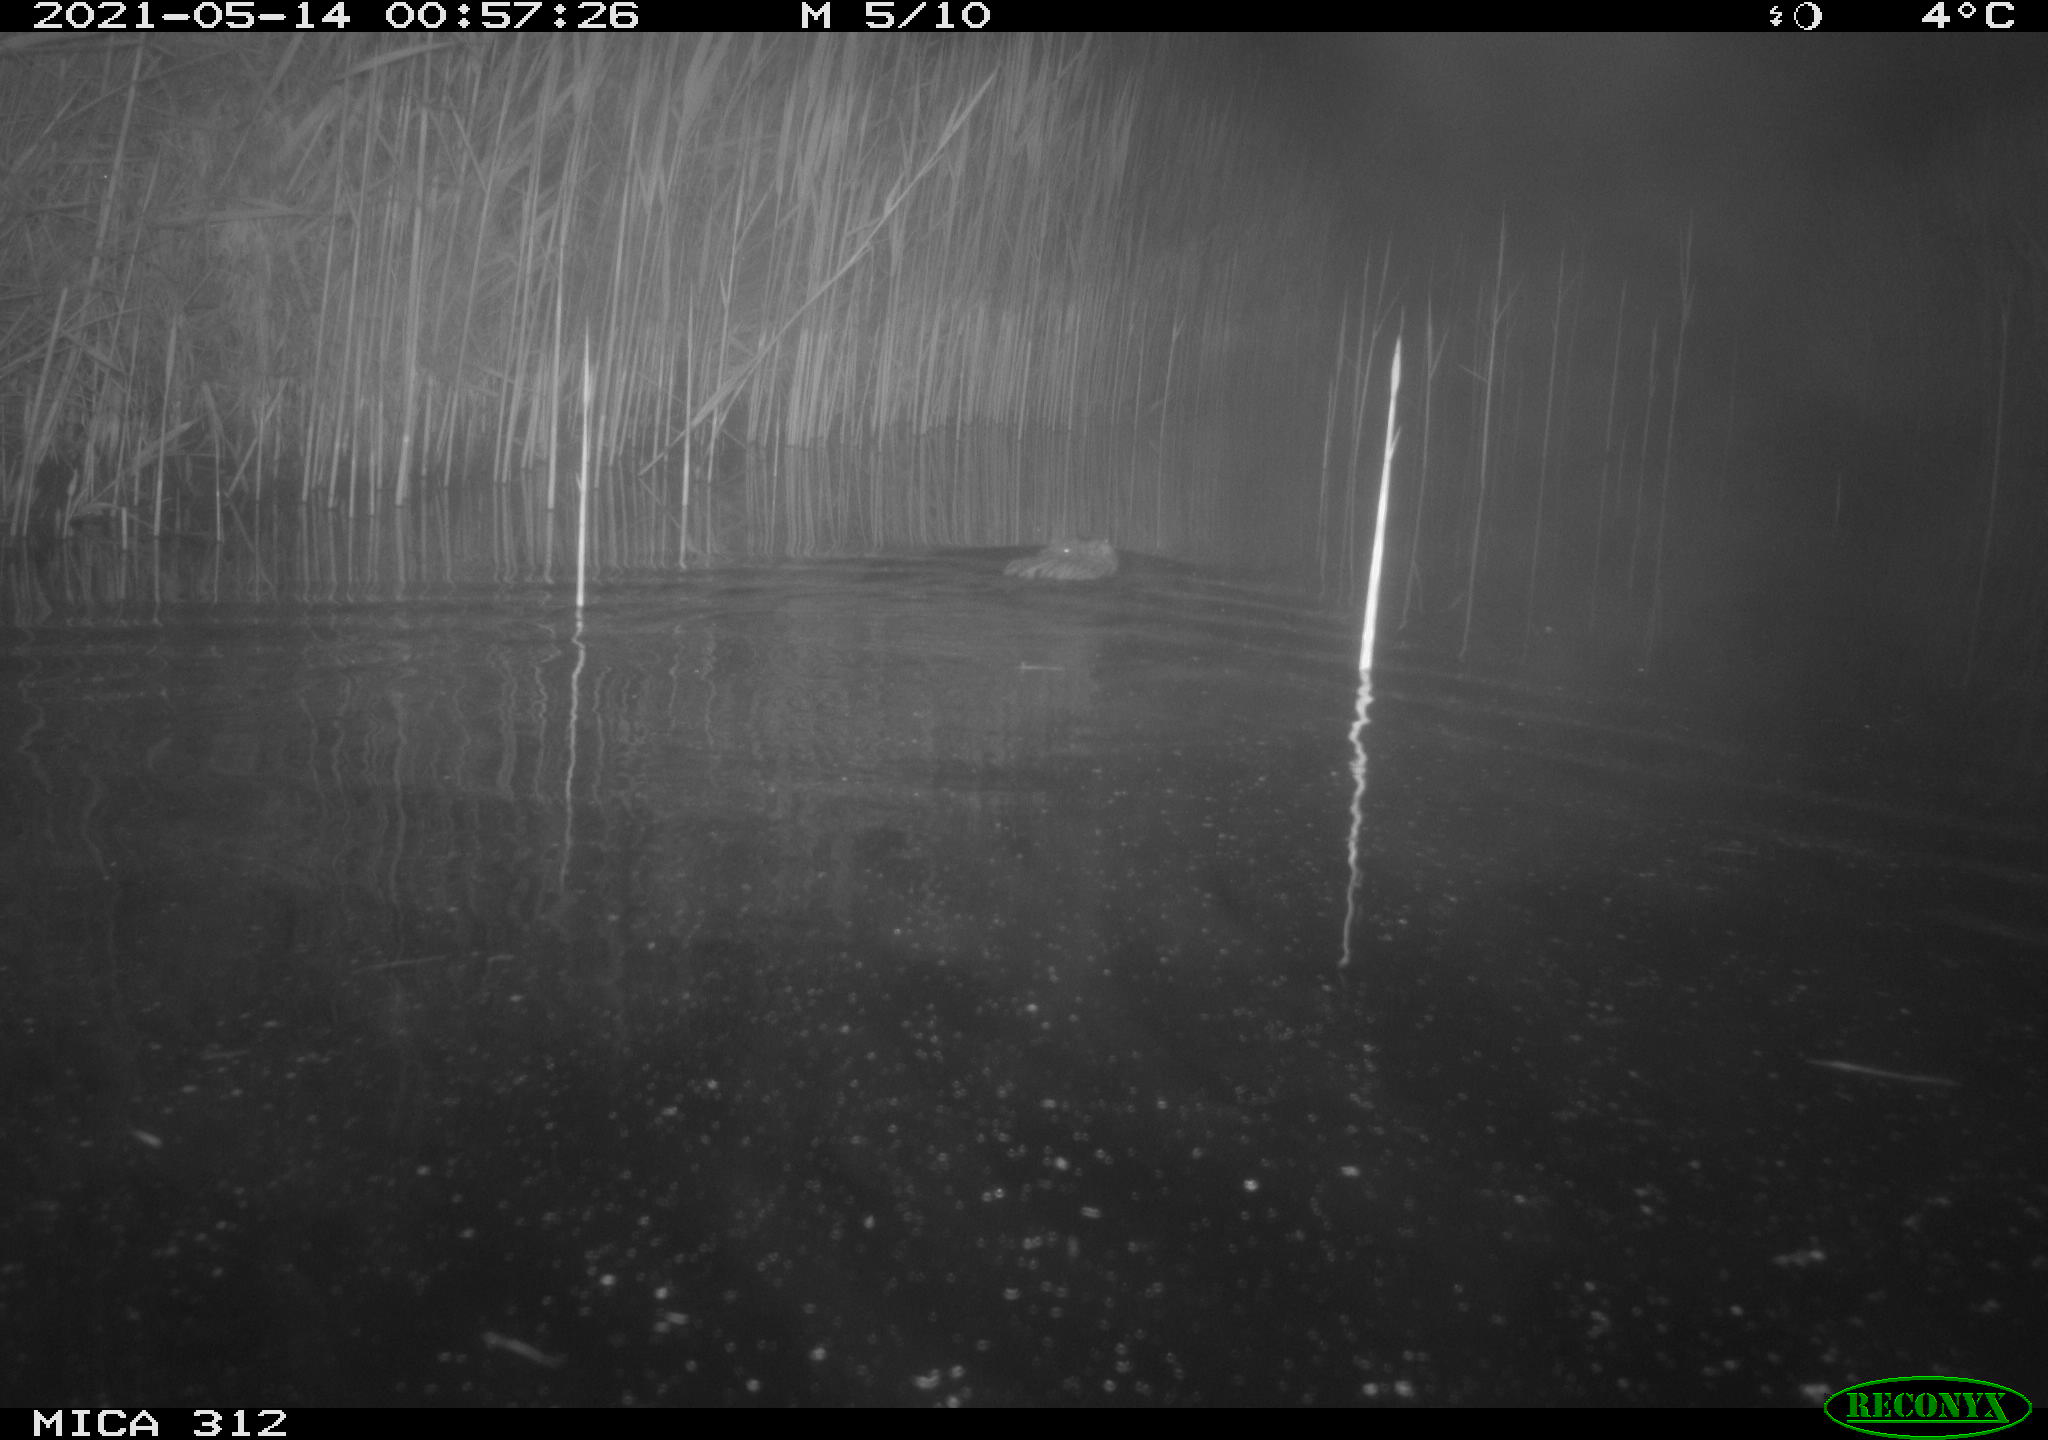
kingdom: Animalia
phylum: Chordata
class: Mammalia
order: Rodentia
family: Cricetidae
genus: Ondatra
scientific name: Ondatra zibethicus
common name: Muskrat
